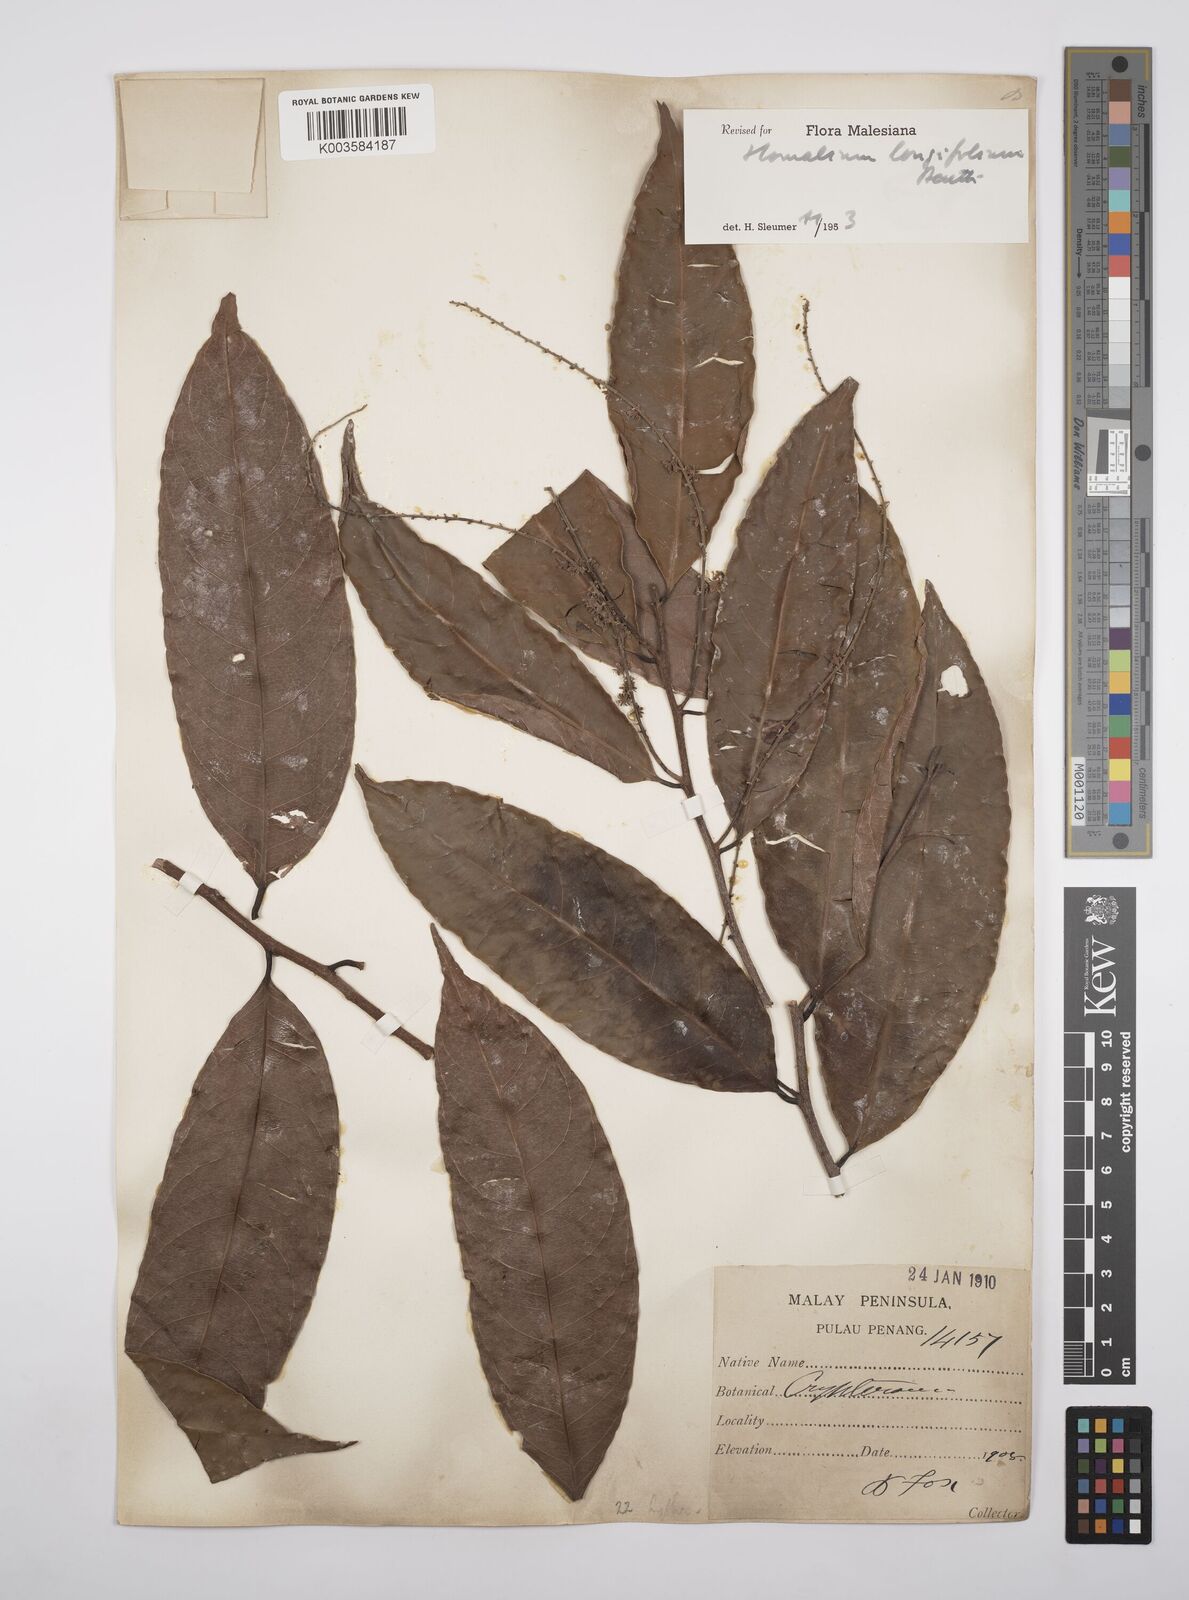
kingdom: Plantae
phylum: Tracheophyta
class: Magnoliopsida
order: Malpighiales
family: Salicaceae
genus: Homalium
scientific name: Homalium longifolium
